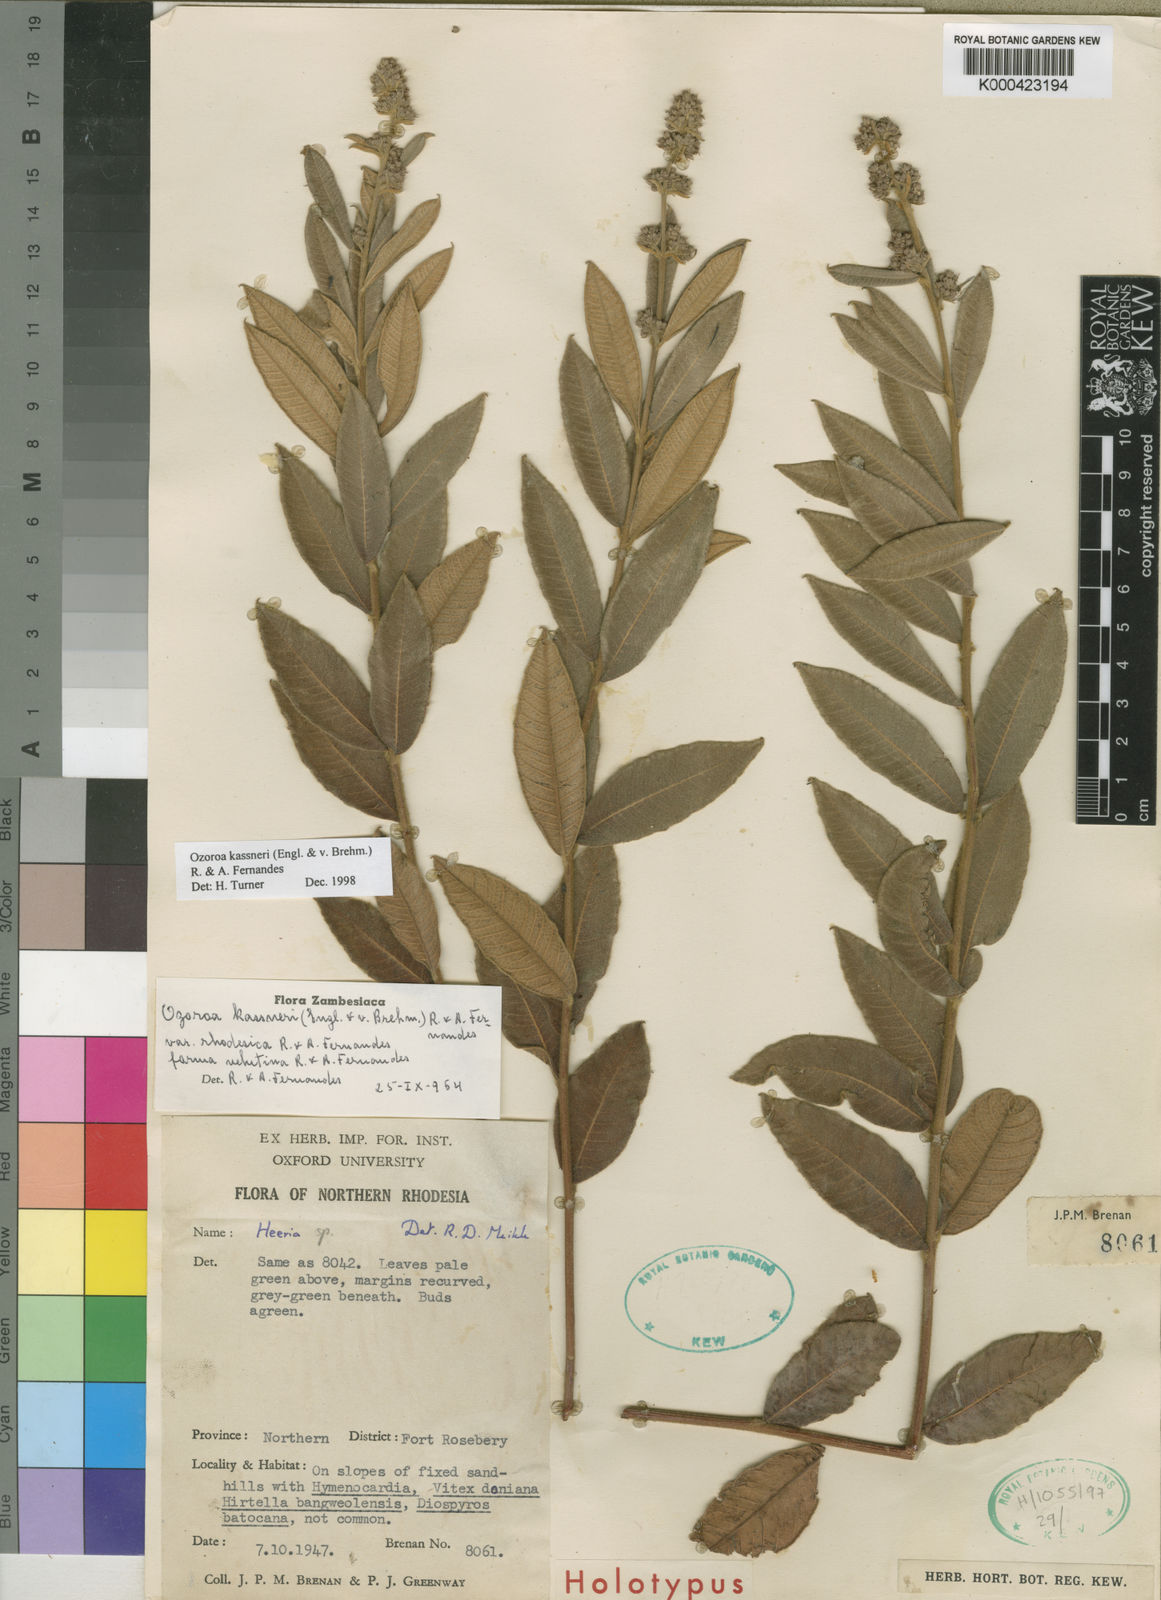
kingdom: Plantae
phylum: Tracheophyta
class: Magnoliopsida
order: Sapindales
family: Anacardiaceae
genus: Ozoroa
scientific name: Ozoroa kassneri
